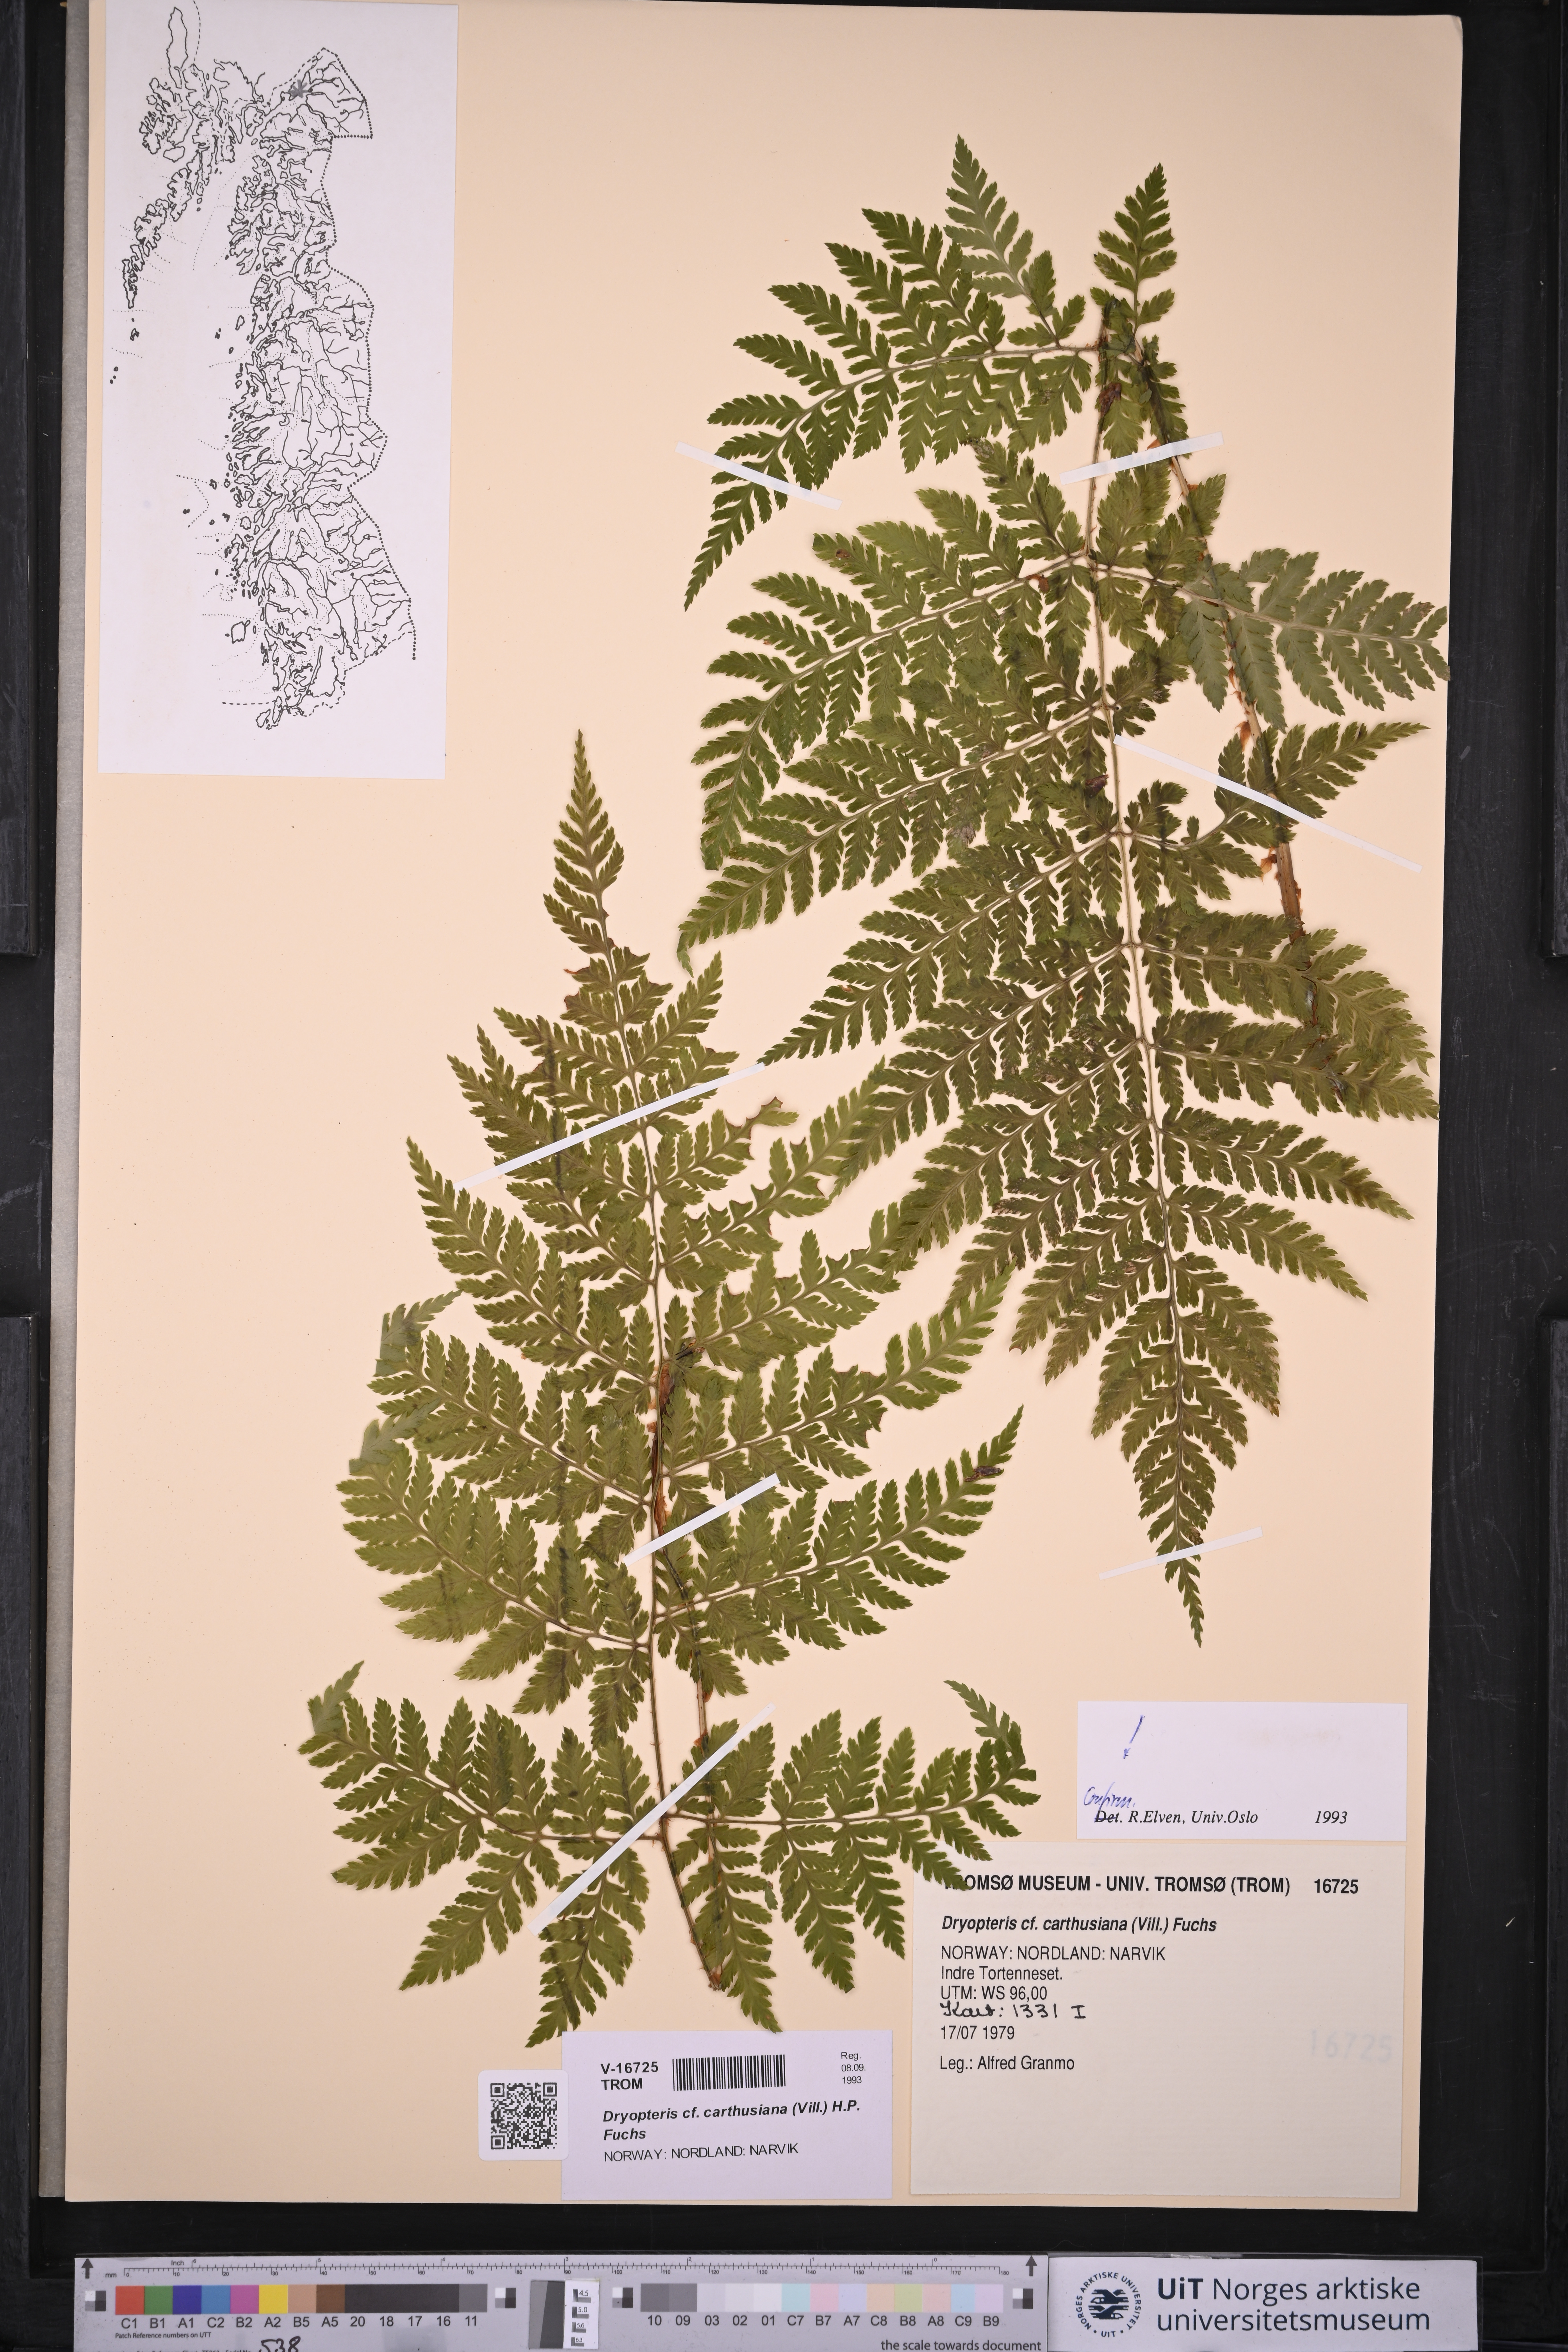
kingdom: Plantae
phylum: Tracheophyta
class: Polypodiopsida
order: Polypodiales
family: Dryopteridaceae
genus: Dryopteris
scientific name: Dryopteris carthusiana
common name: Narrow buckler-fern
